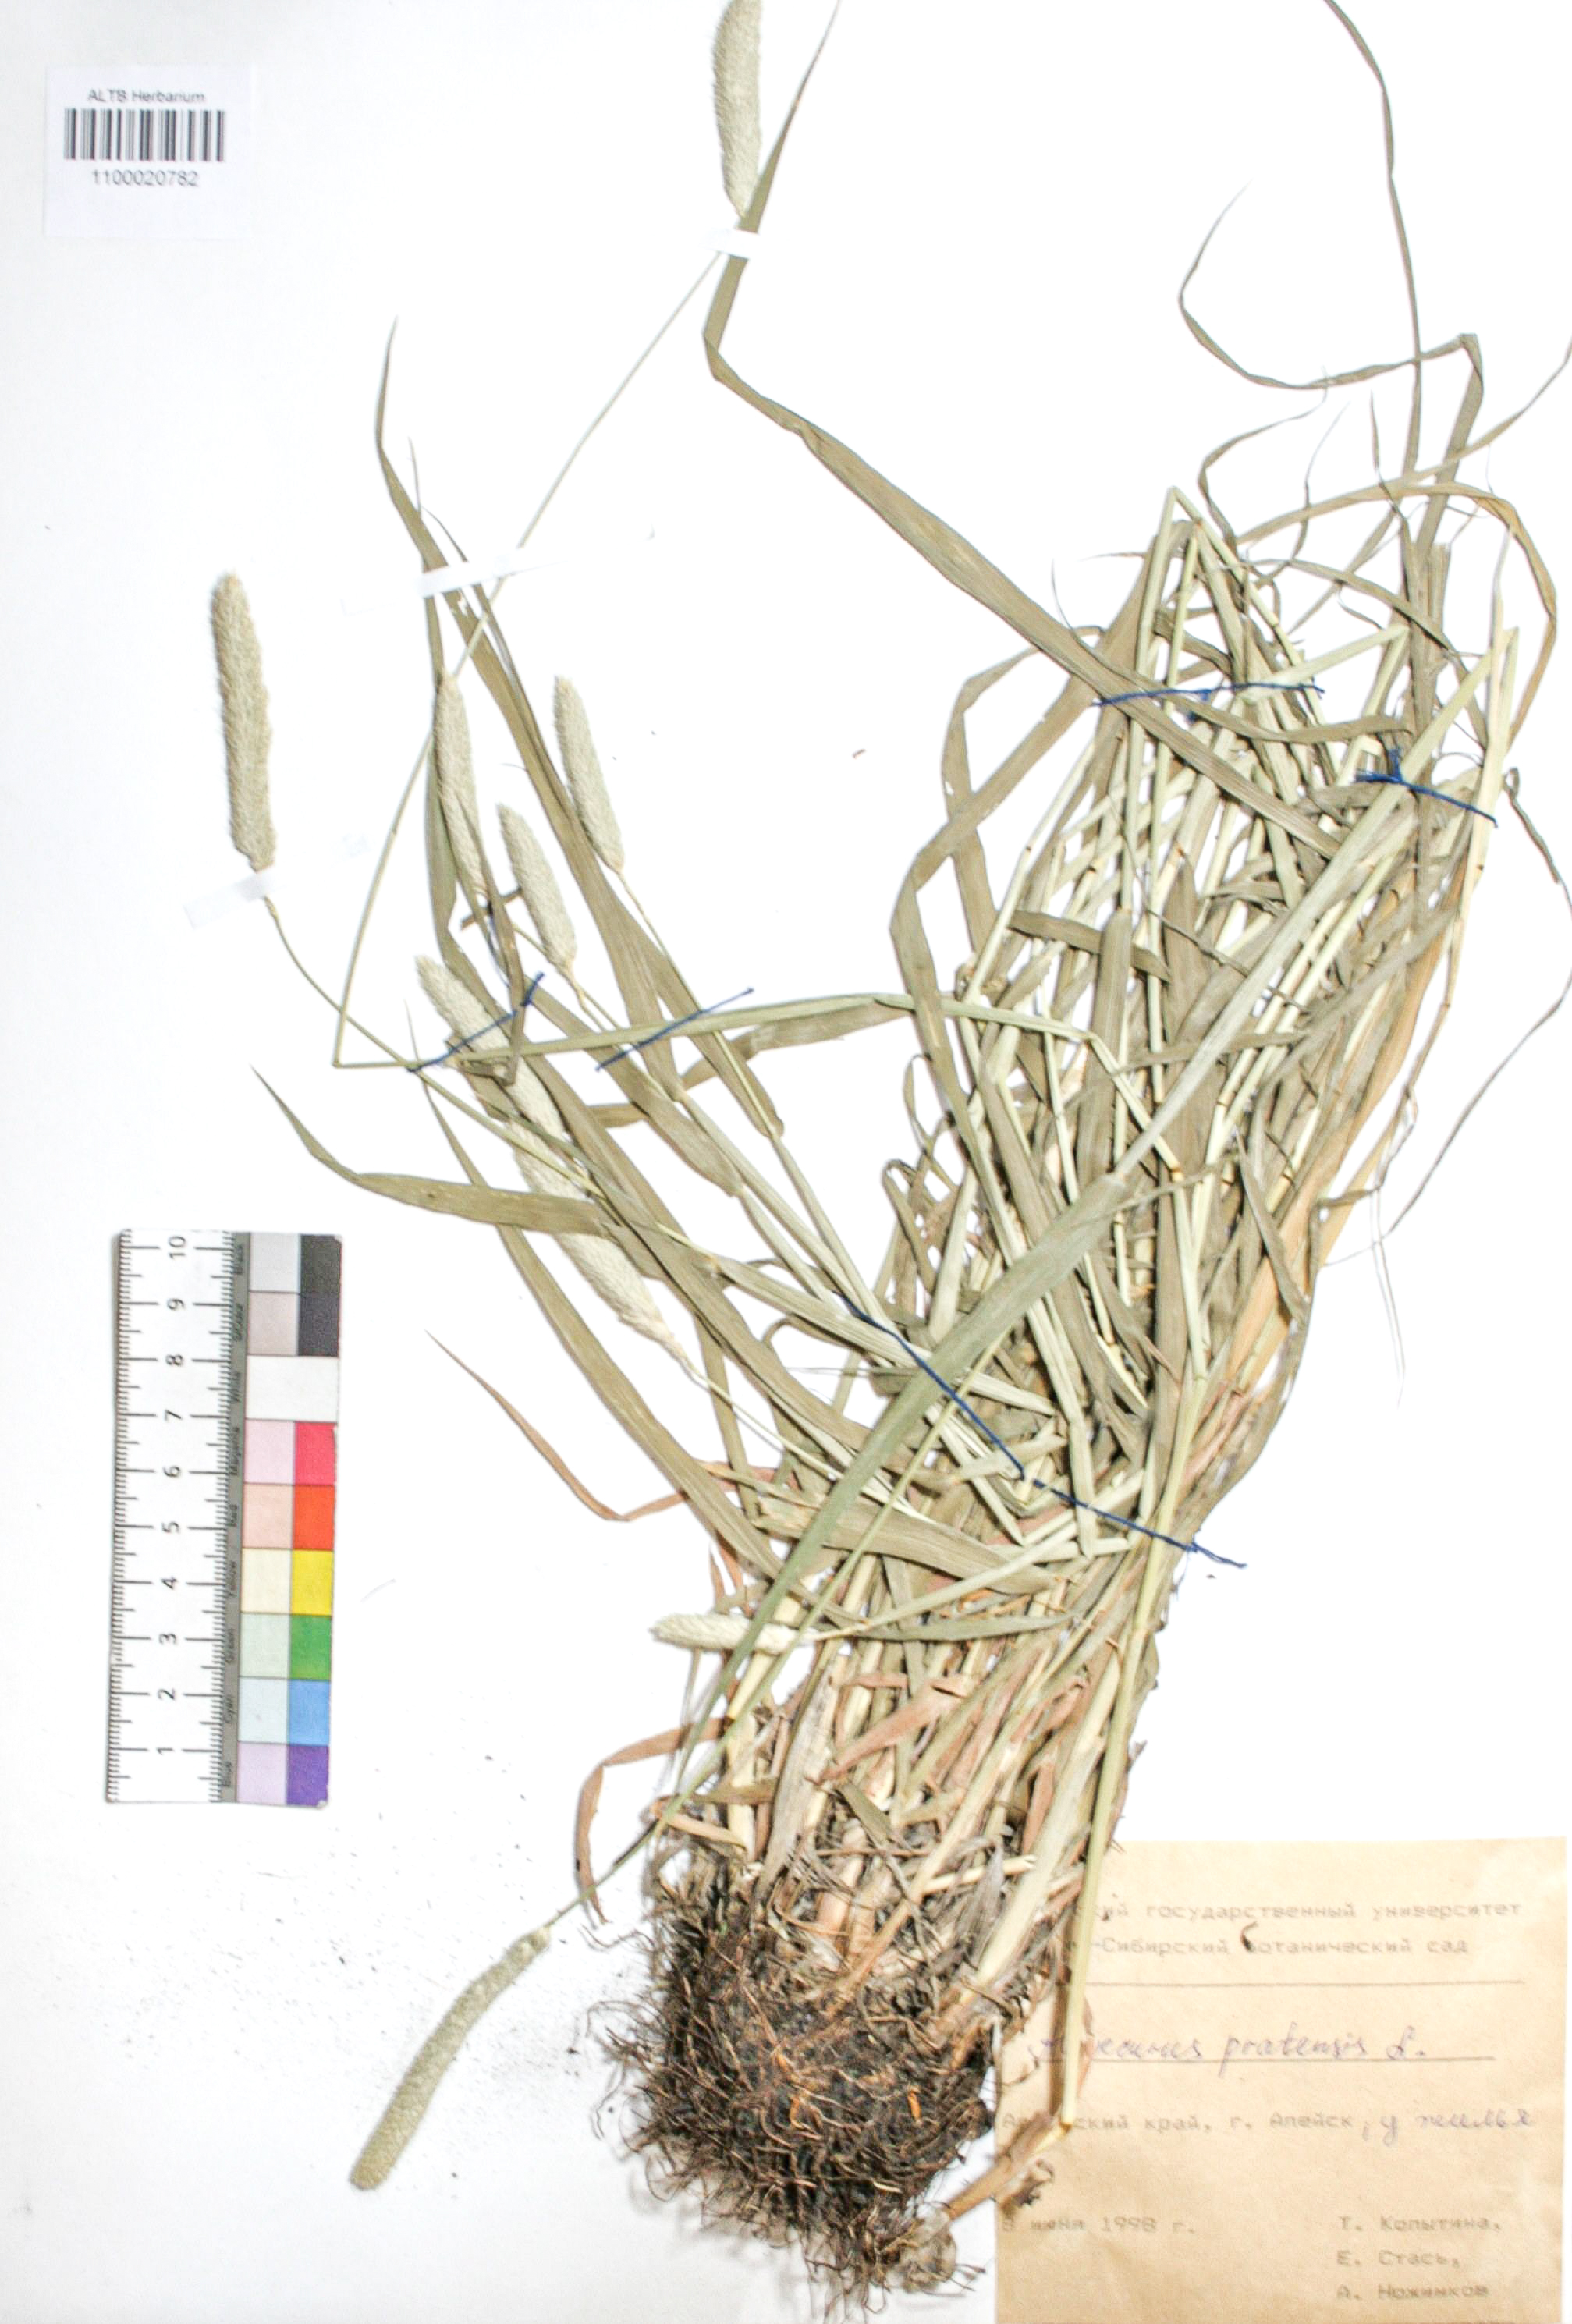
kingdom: Plantae
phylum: Tracheophyta
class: Liliopsida
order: Poales
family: Poaceae
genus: Alopecurus
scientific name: Alopecurus pratensis
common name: Meadow foxtail
